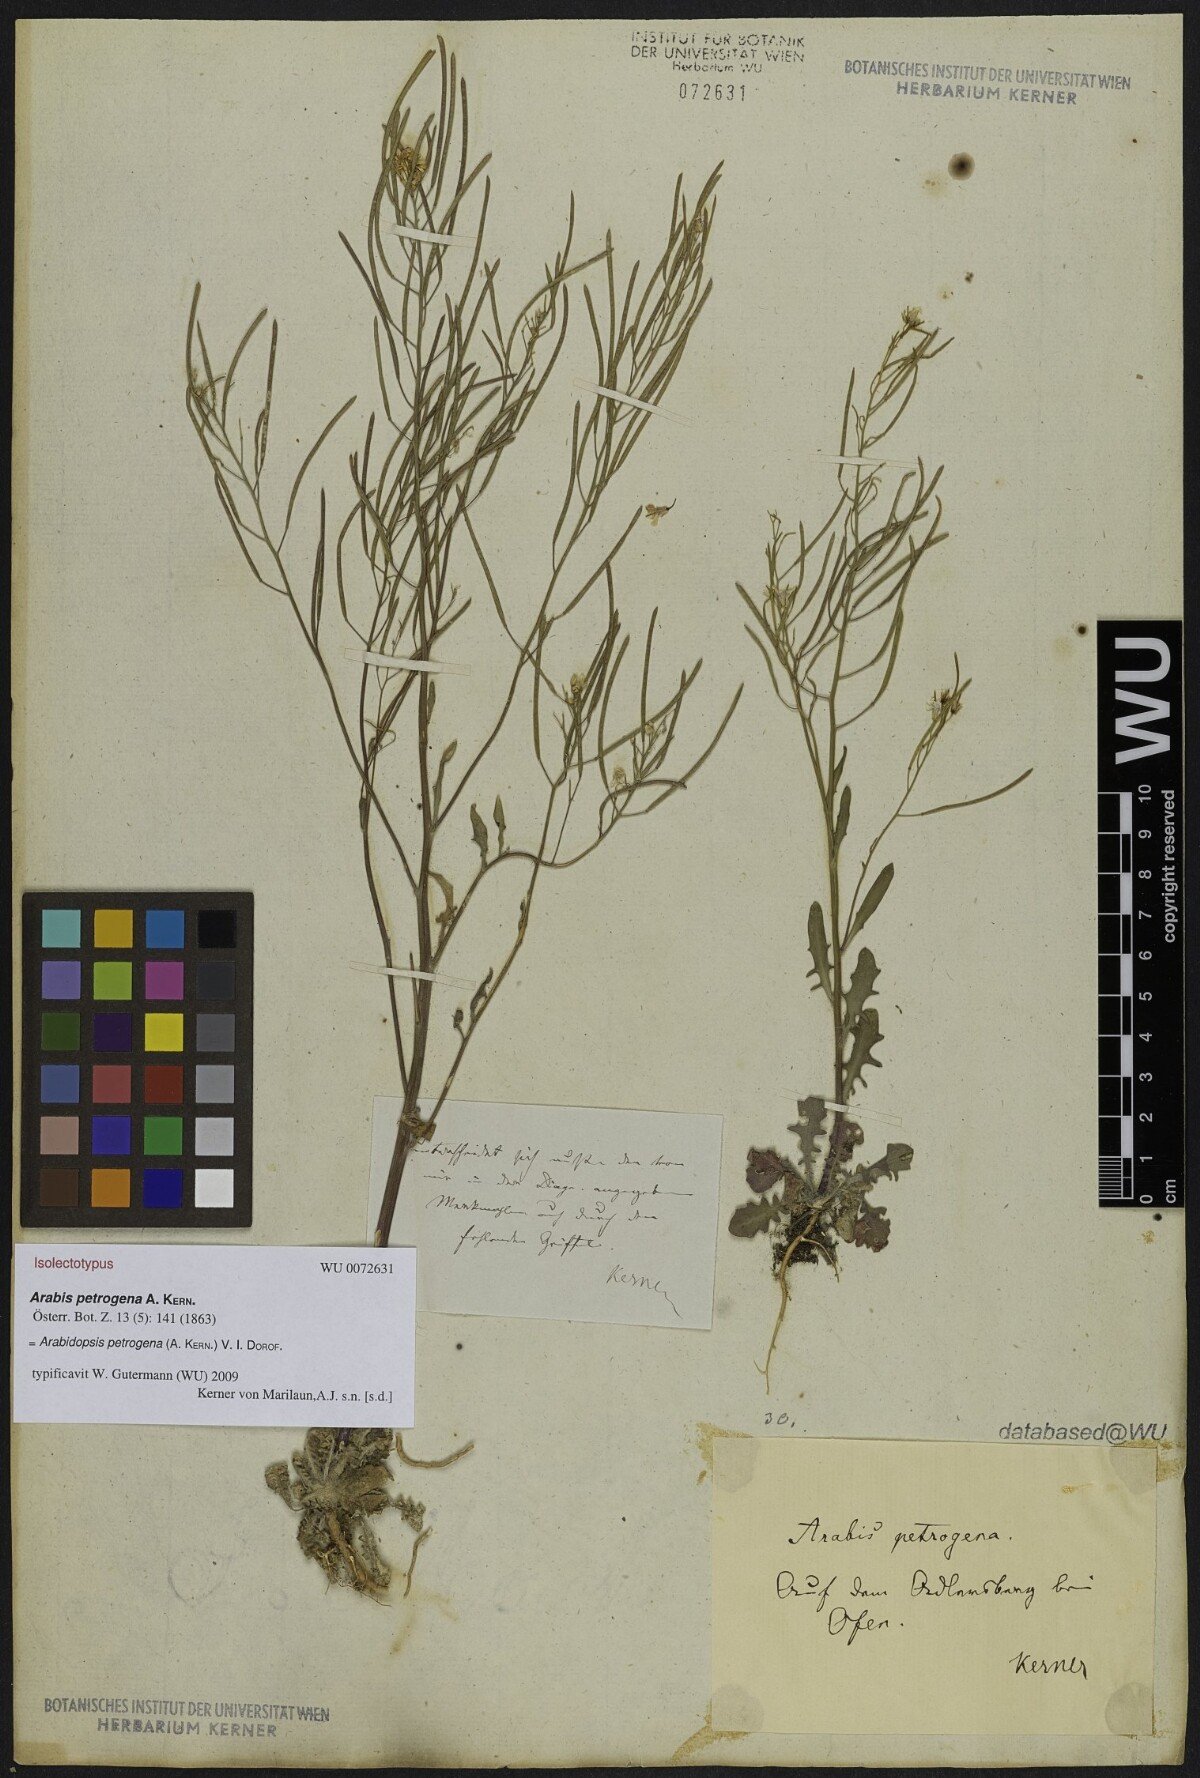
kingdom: Plantae
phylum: Tracheophyta
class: Magnoliopsida
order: Brassicales
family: Brassicaceae
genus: Arabidopsis
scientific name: Arabidopsis petrogena
